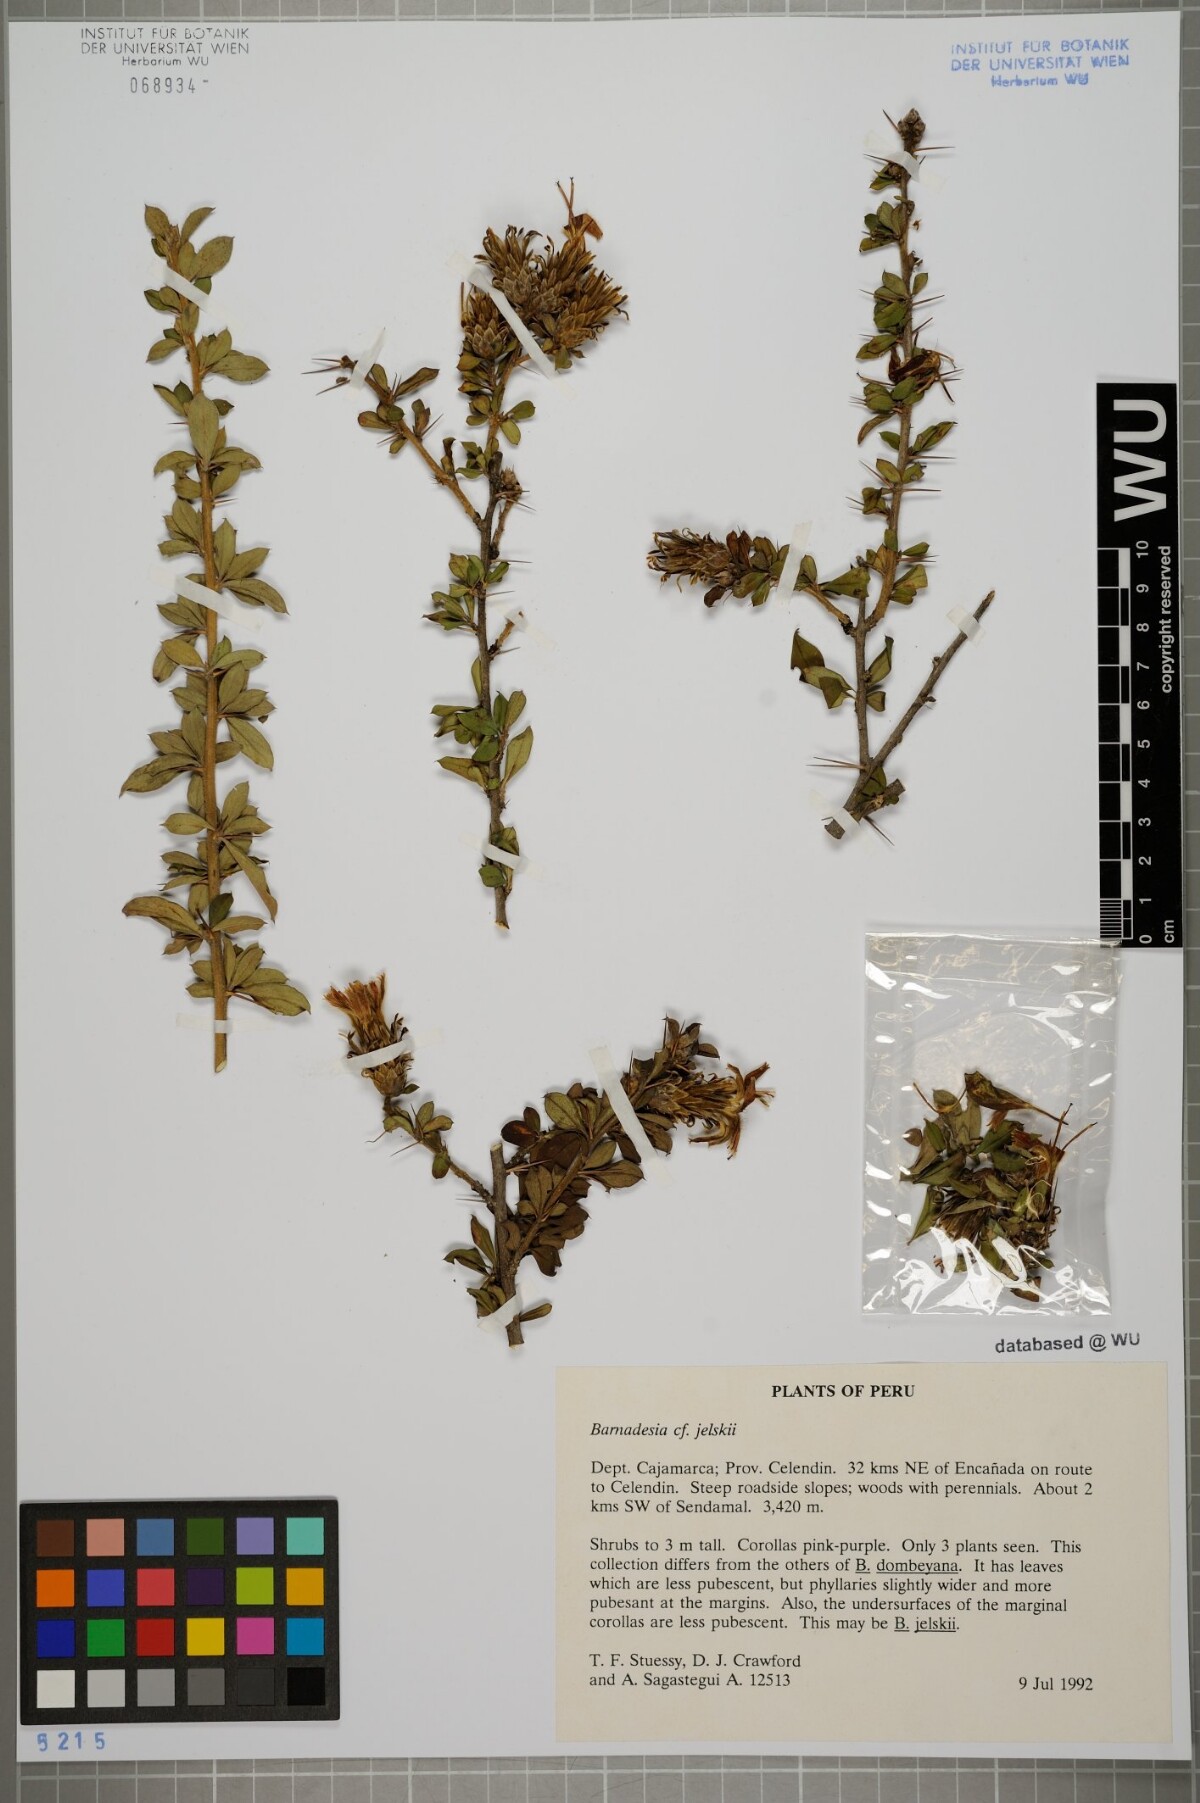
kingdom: Plantae
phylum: Tracheophyta
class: Magnoliopsida
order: Asterales
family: Asteraceae
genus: Barnadesia
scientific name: Barnadesia jelskii
